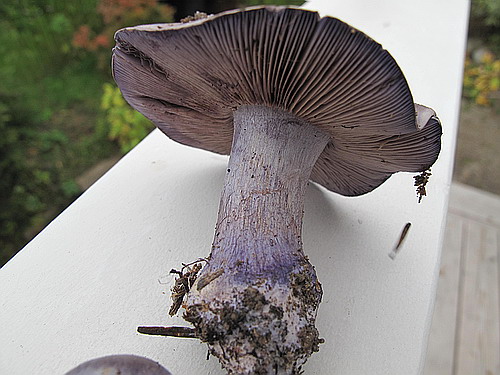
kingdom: Fungi
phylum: Basidiomycota
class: Agaricomycetes
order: Agaricales
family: Cortinariaceae
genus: Thaxterogaster
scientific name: Thaxterogaster purpurascens
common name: purpurbrun slørhat
